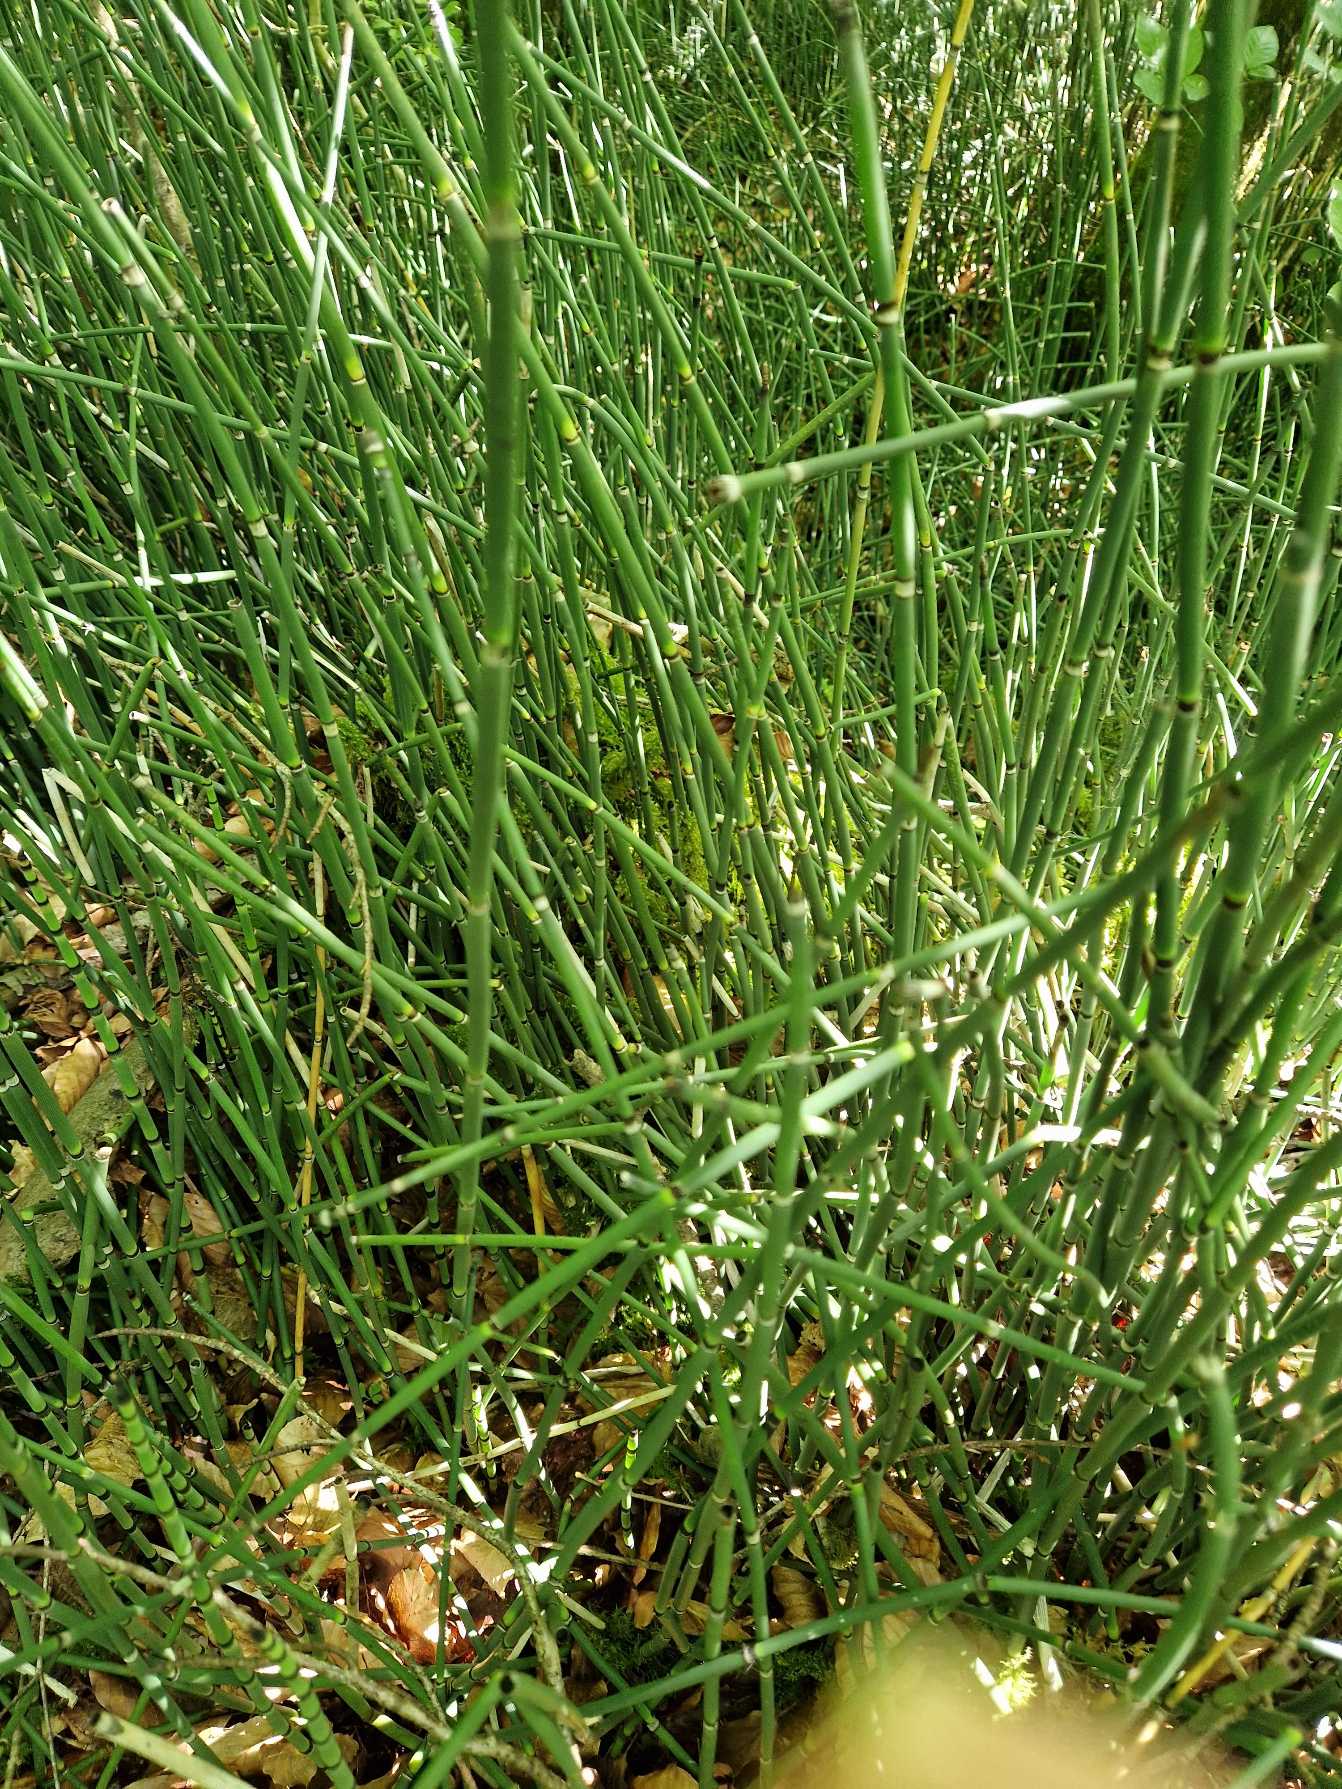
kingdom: Plantae
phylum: Tracheophyta
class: Polypodiopsida
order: Equisetales
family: Equisetaceae
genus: Equisetum
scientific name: Equisetum hyemale
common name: Skavgræs
